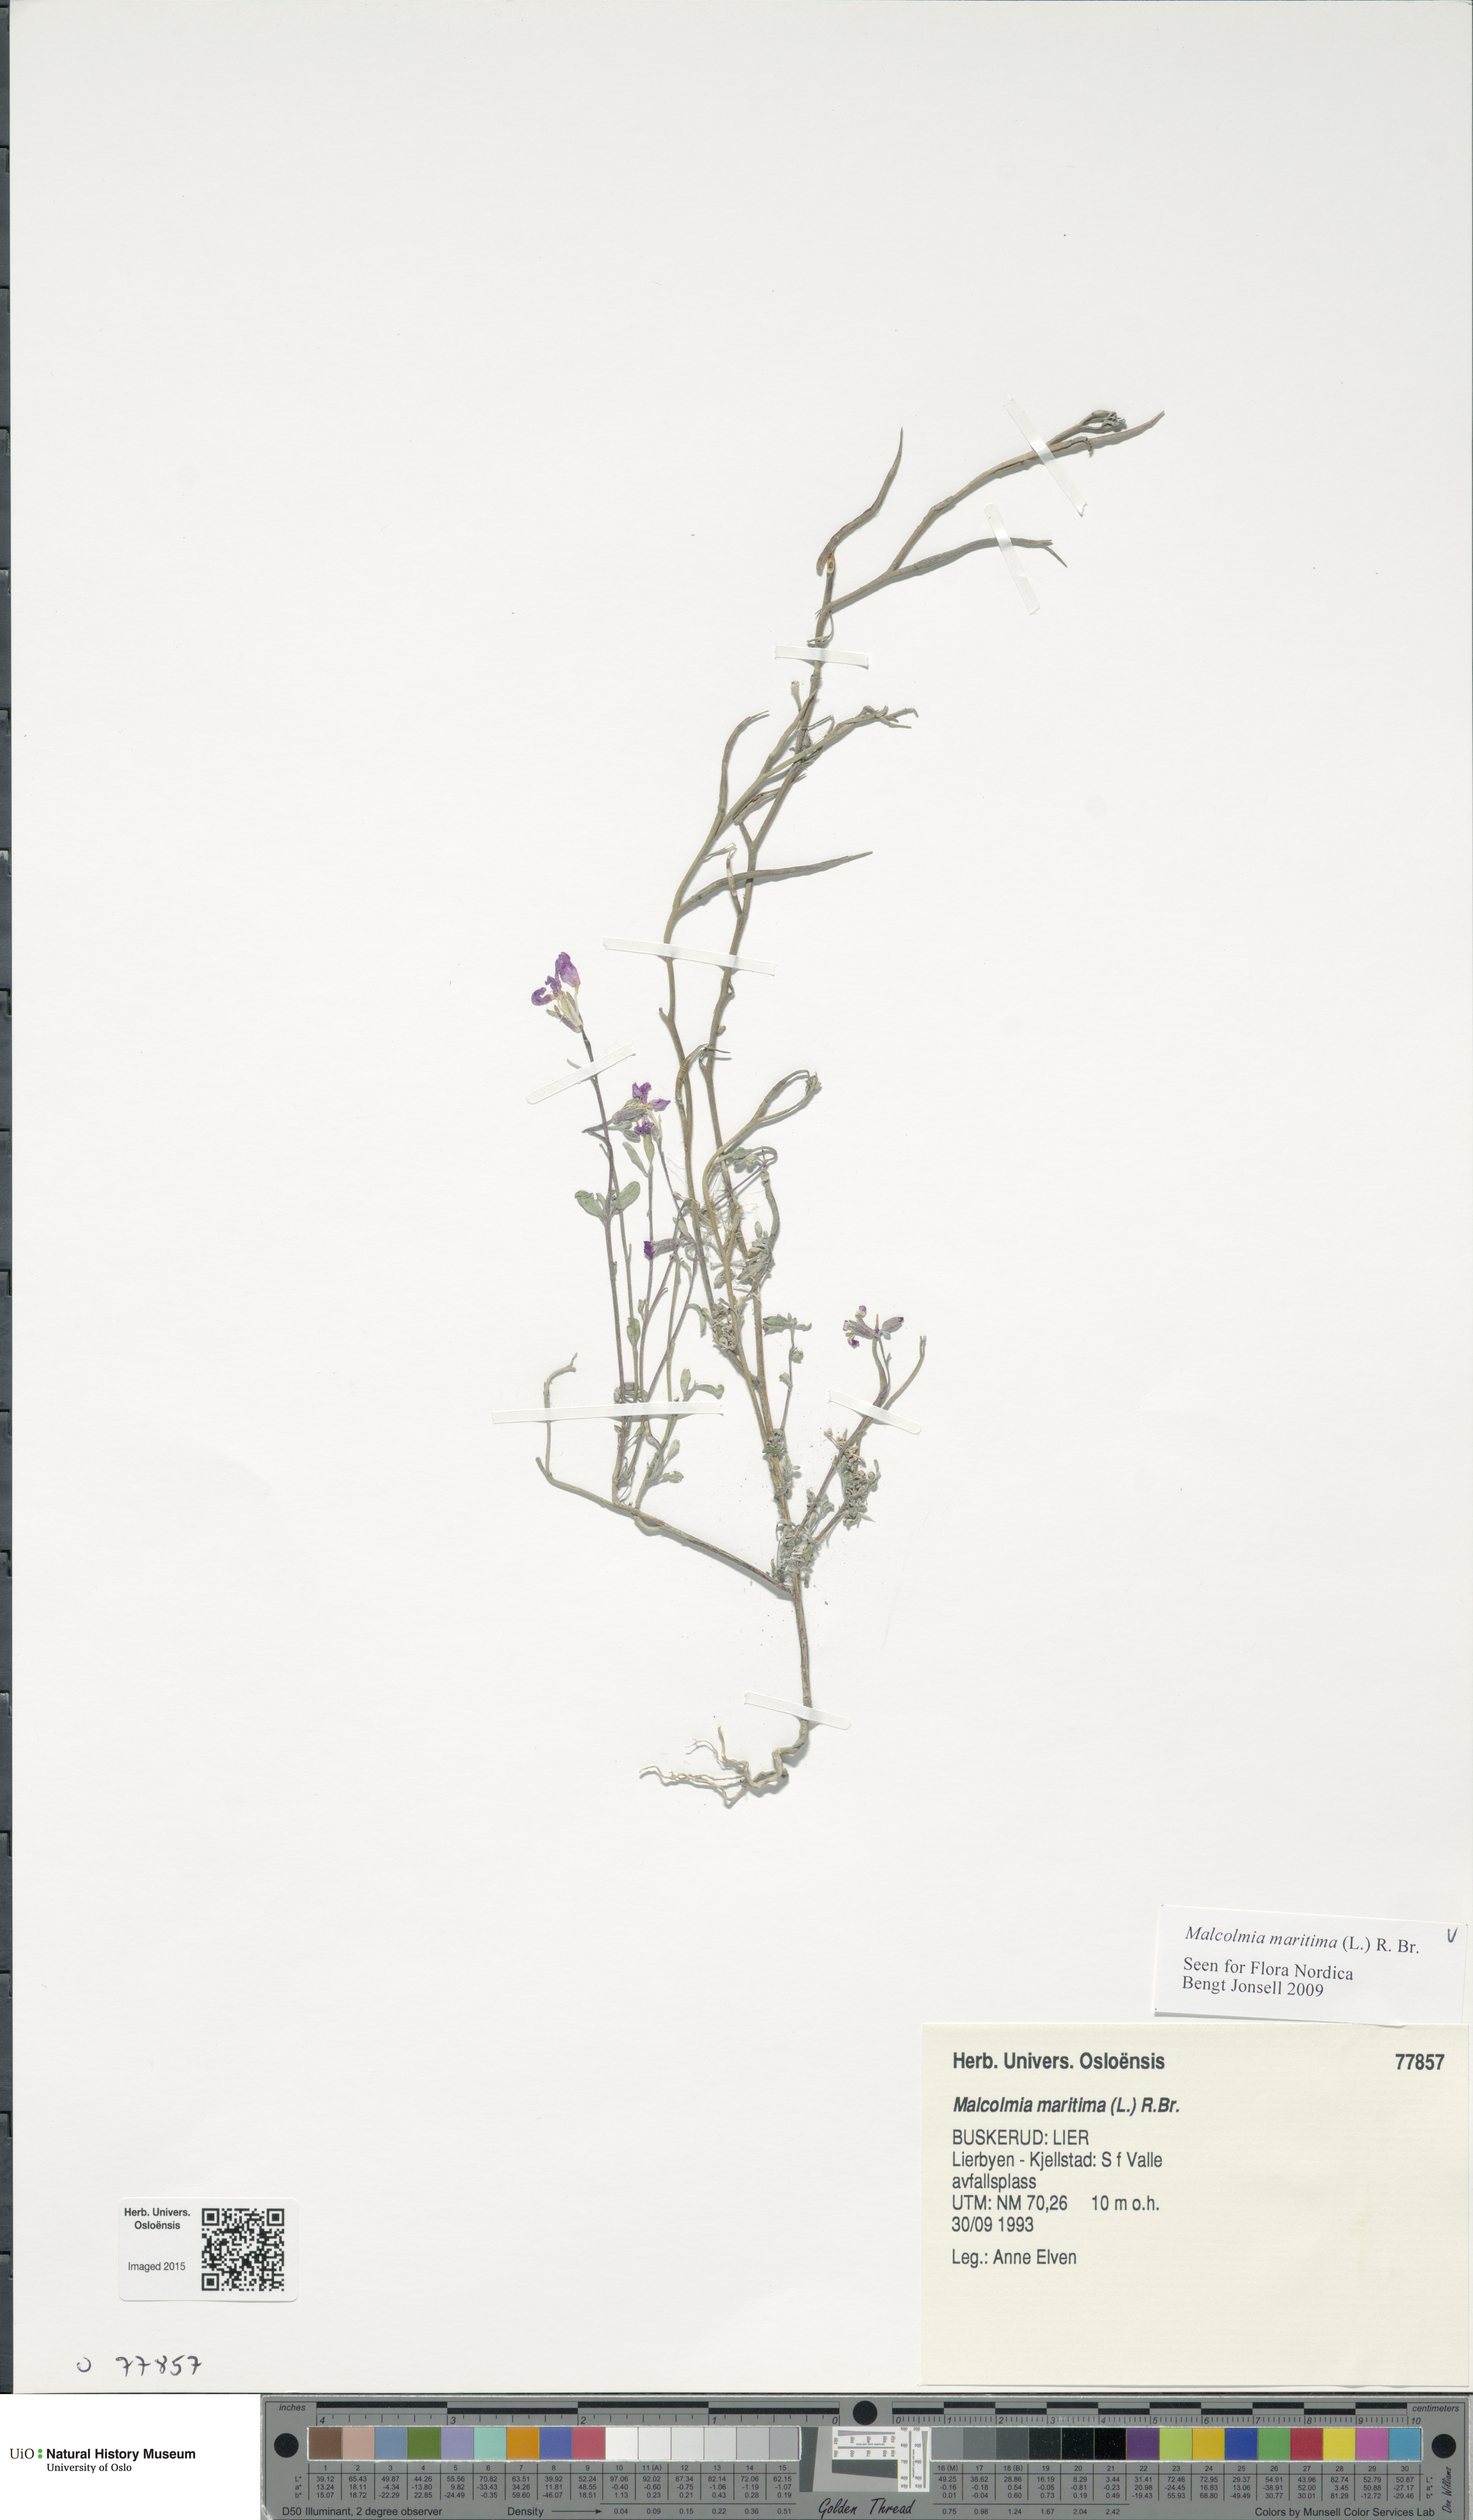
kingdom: Plantae
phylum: Tracheophyta
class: Magnoliopsida
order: Brassicales
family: Brassicaceae
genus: Malcolmia
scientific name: Malcolmia maritima
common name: Virginia stock
